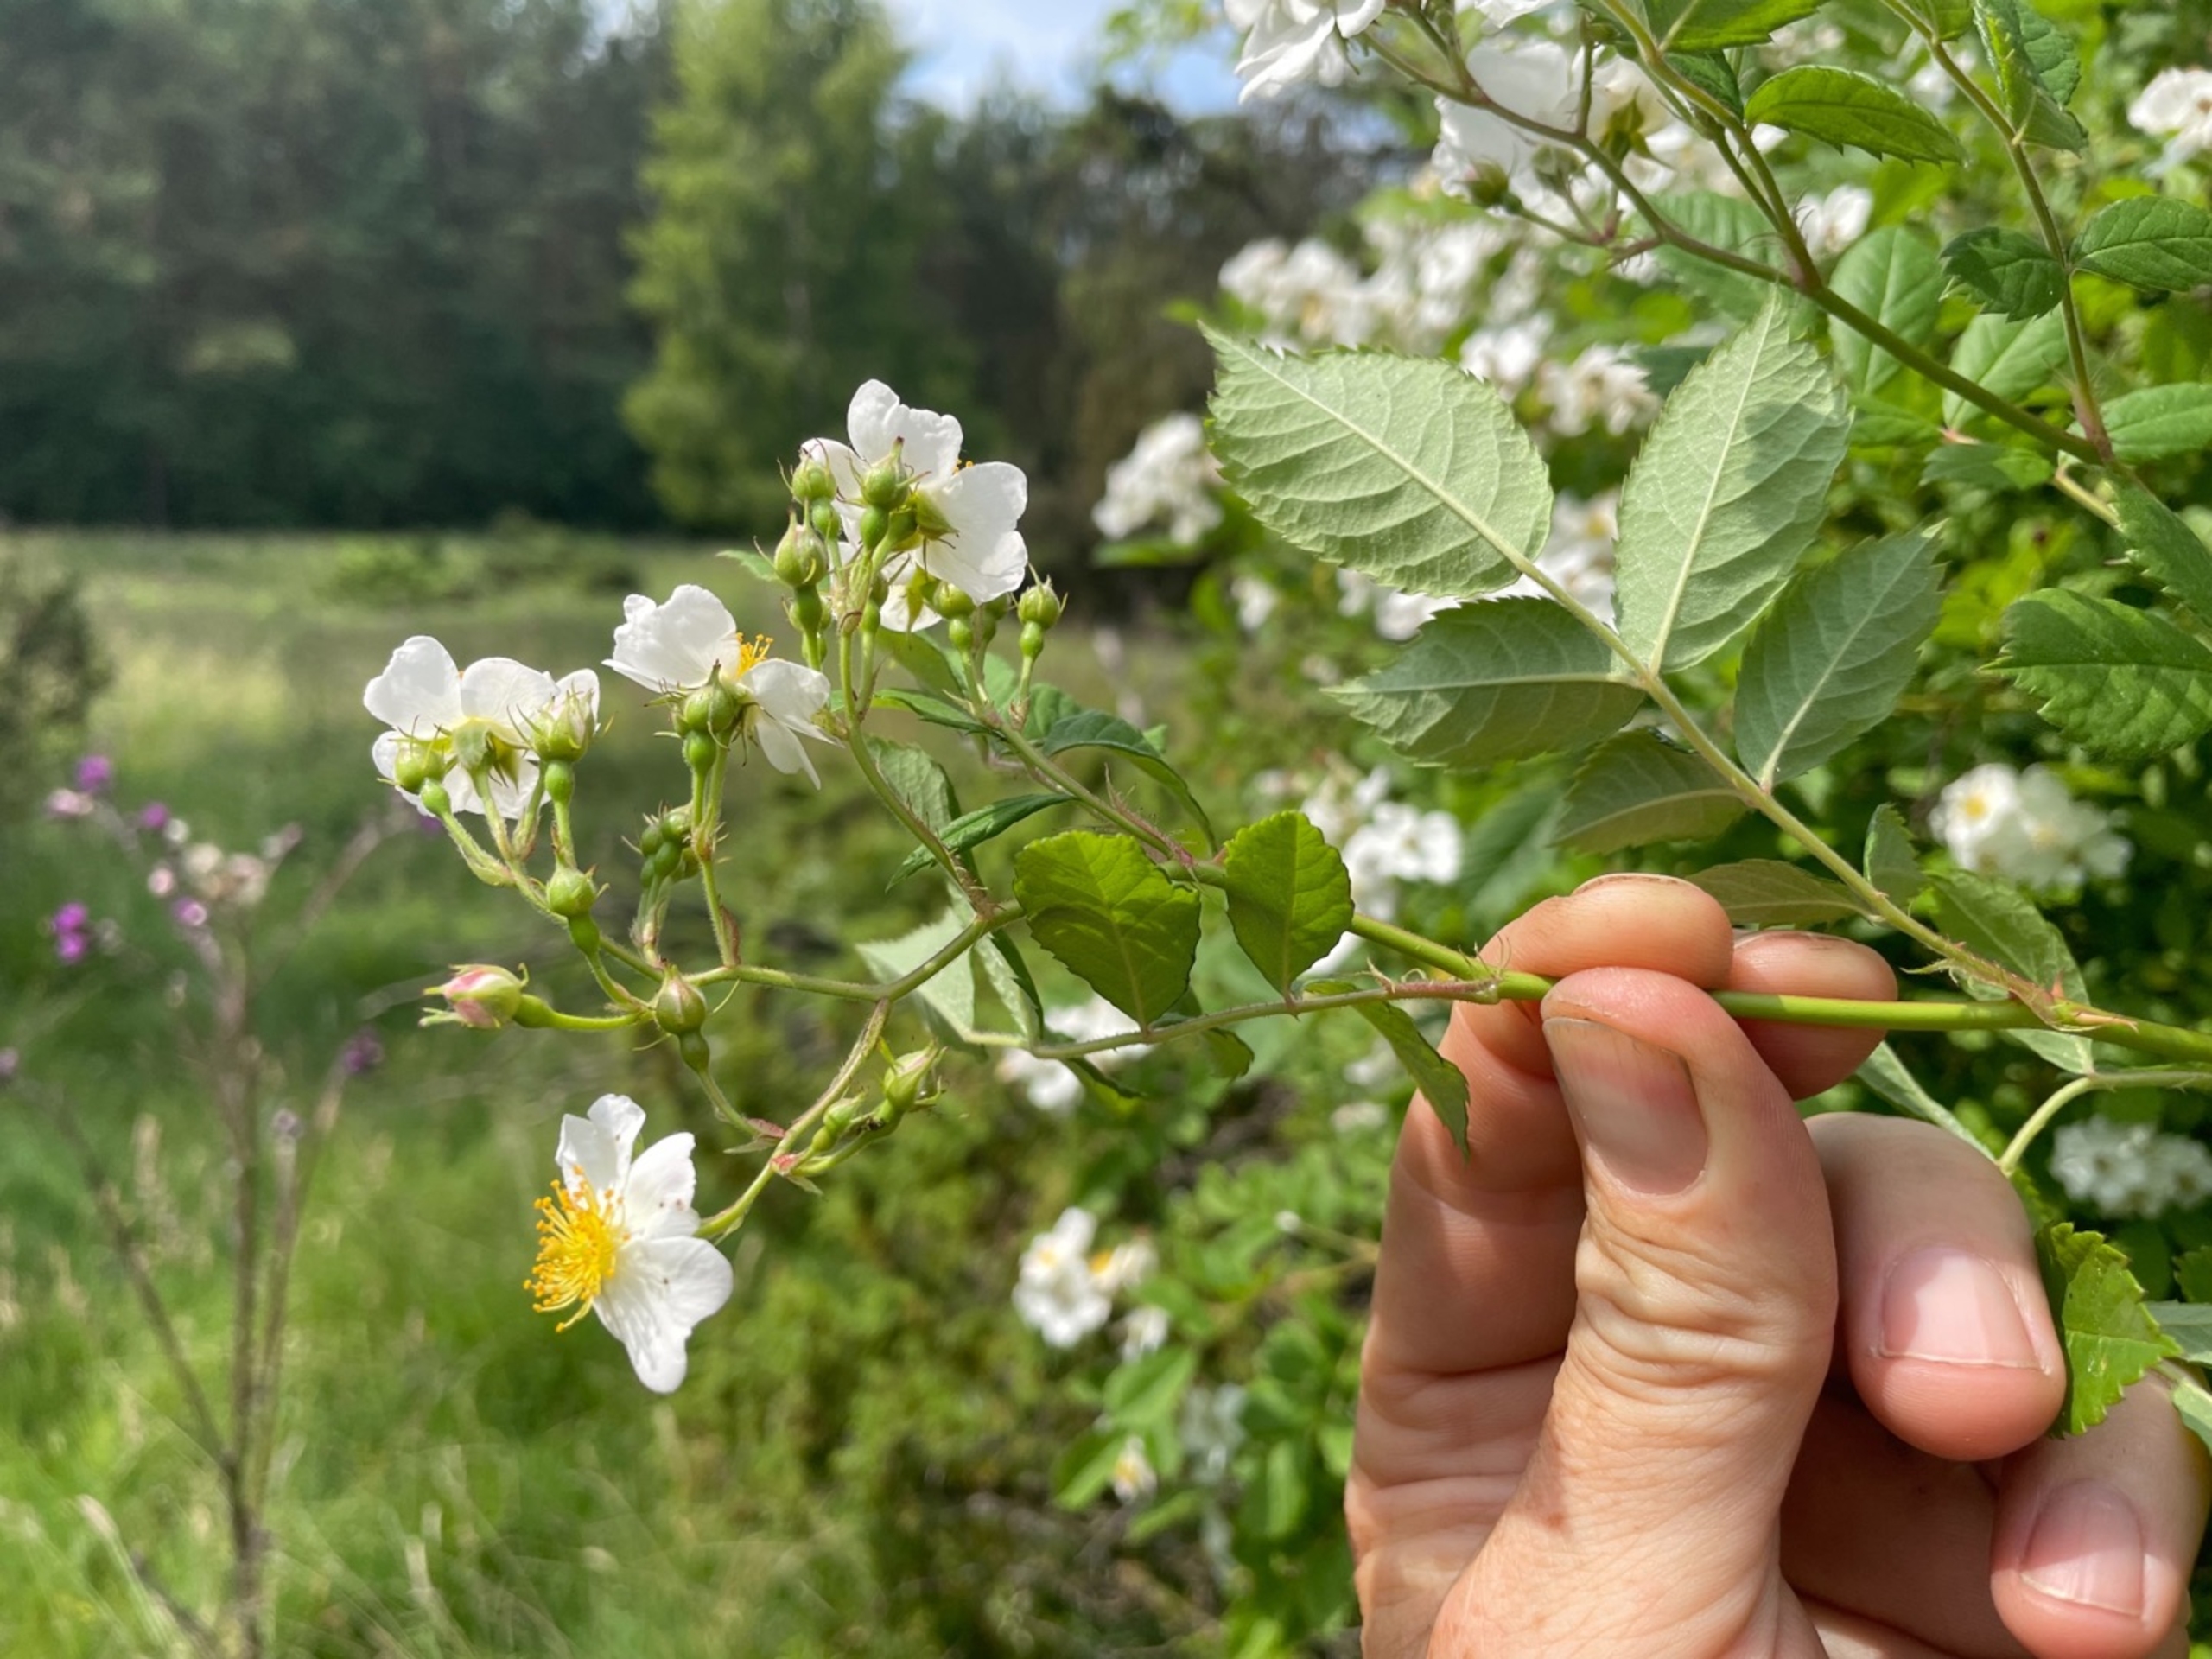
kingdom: Plantae
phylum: Tracheophyta
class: Magnoliopsida
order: Rosales
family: Rosaceae
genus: Rosa
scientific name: Rosa multiflora
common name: Mangeblomstret rose
